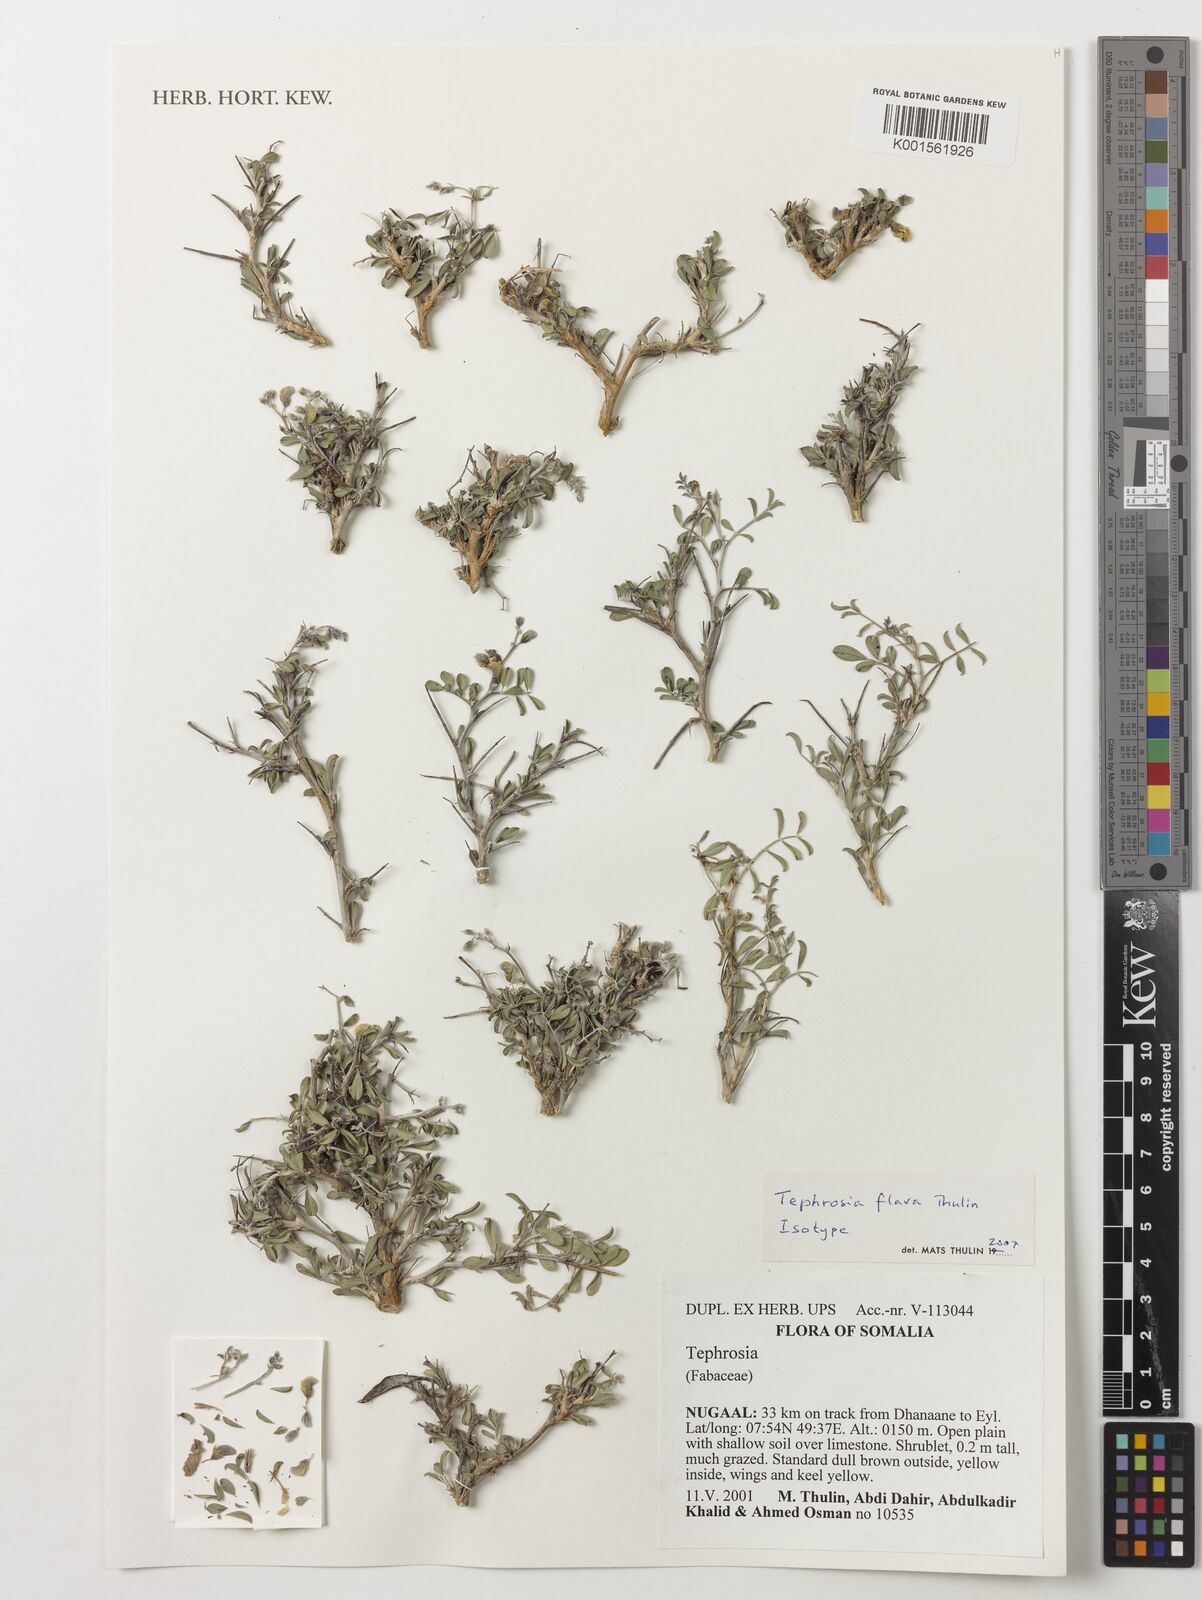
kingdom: Plantae
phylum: Tracheophyta
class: Magnoliopsida
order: Fabales
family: Fabaceae
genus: Tephrosia
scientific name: Tephrosia flava
